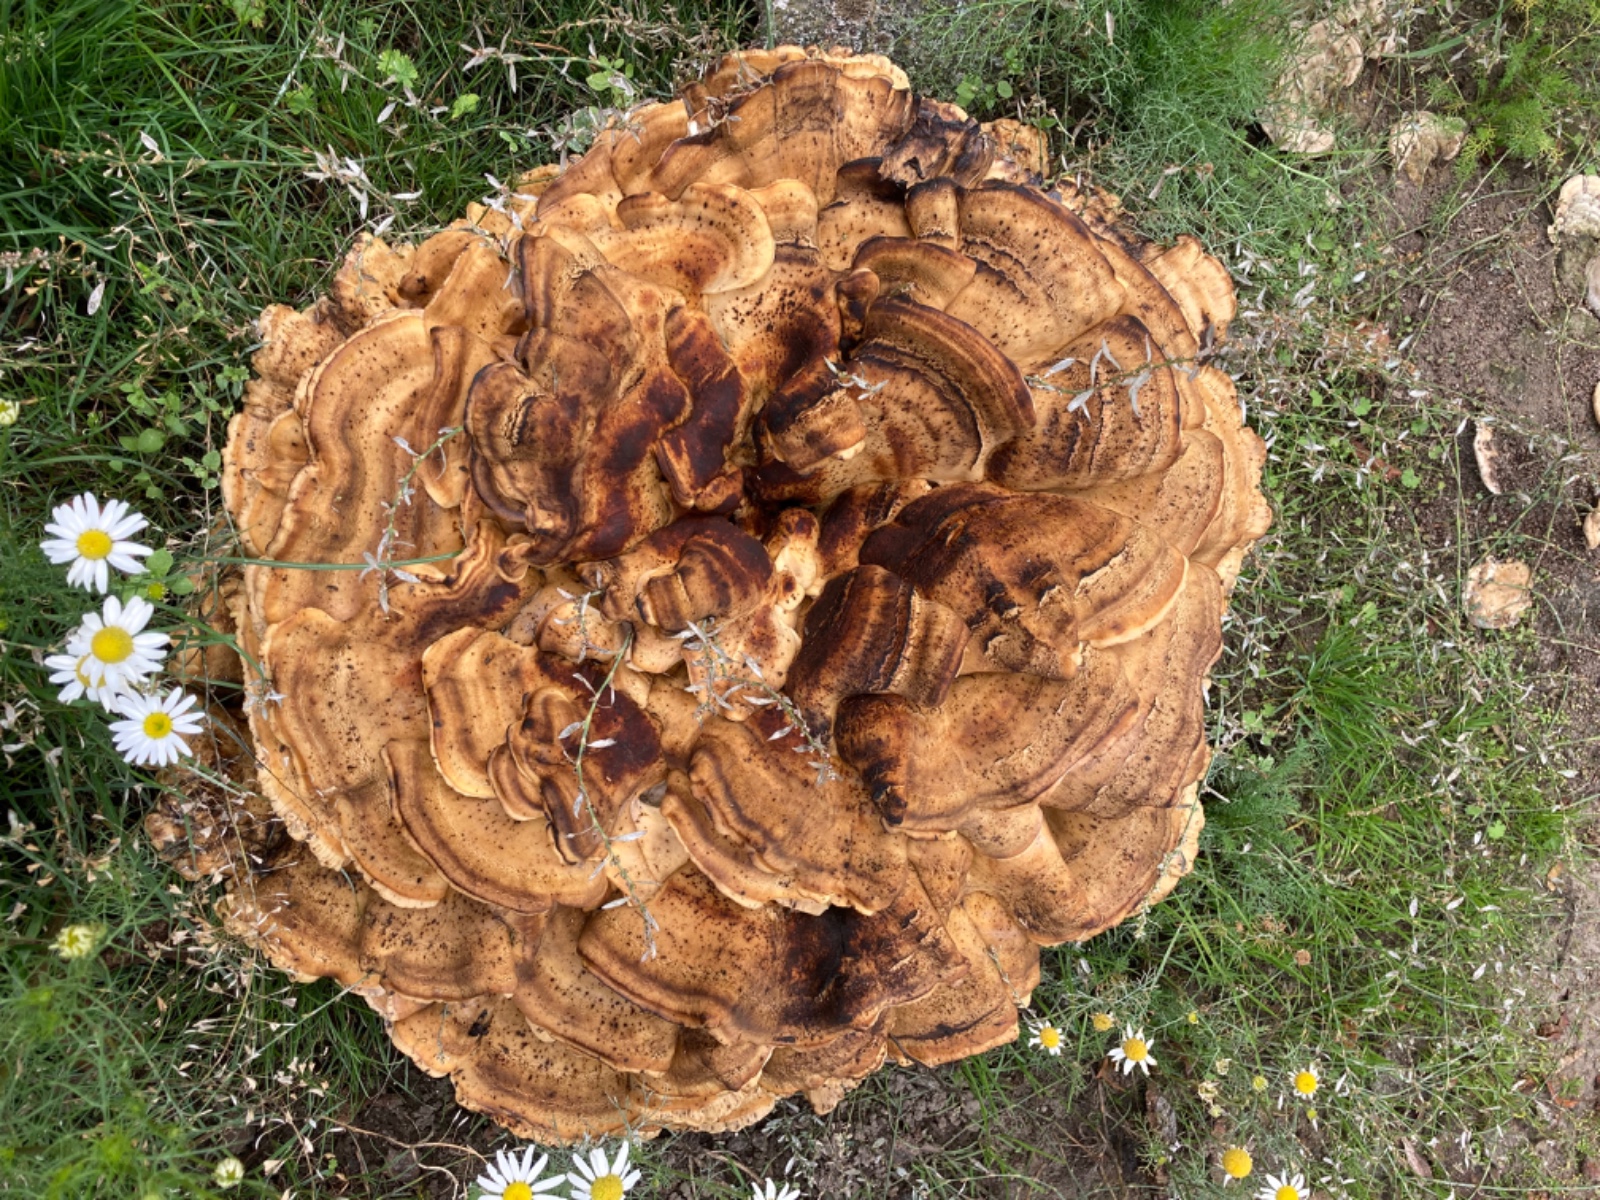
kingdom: Fungi
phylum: Basidiomycota
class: Agaricomycetes
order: Polyporales
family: Meripilaceae
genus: Meripilus
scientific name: Meripilus giganteus
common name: kæmpeporesvamp
